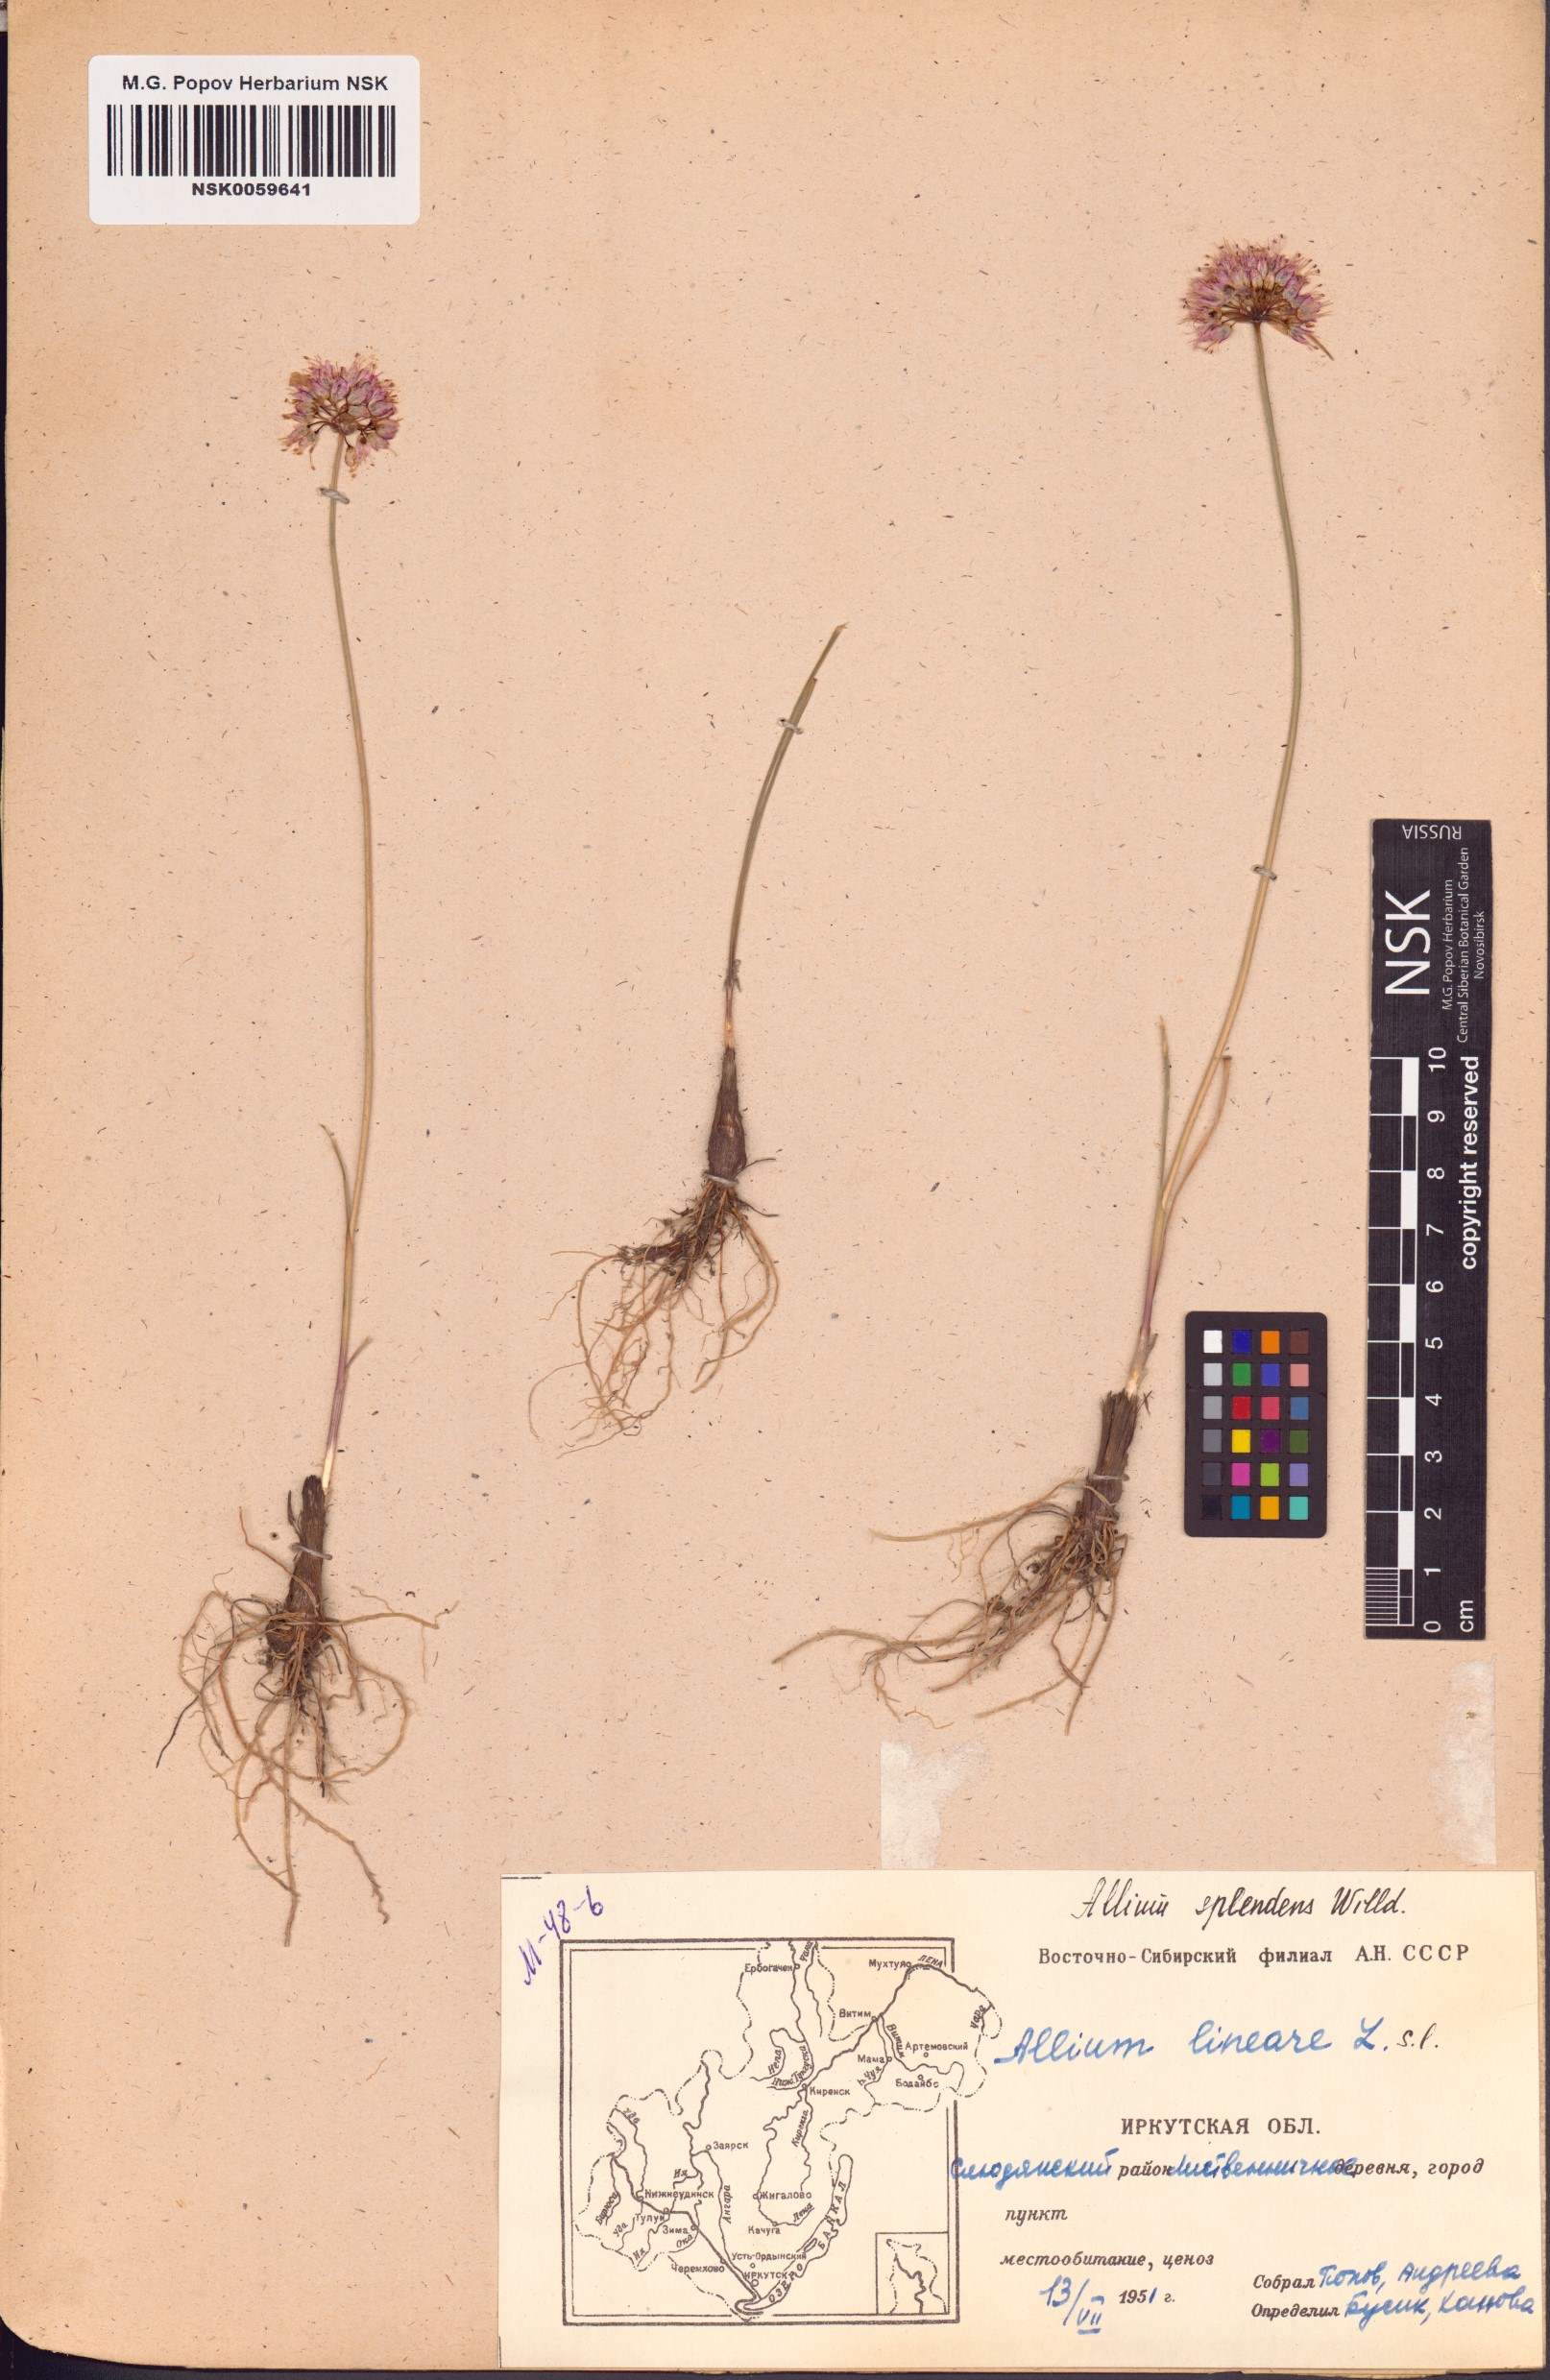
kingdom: Plantae
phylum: Tracheophyta
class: Liliopsida
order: Asparagales
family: Amaryllidaceae
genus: Allium
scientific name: Allium splendens
